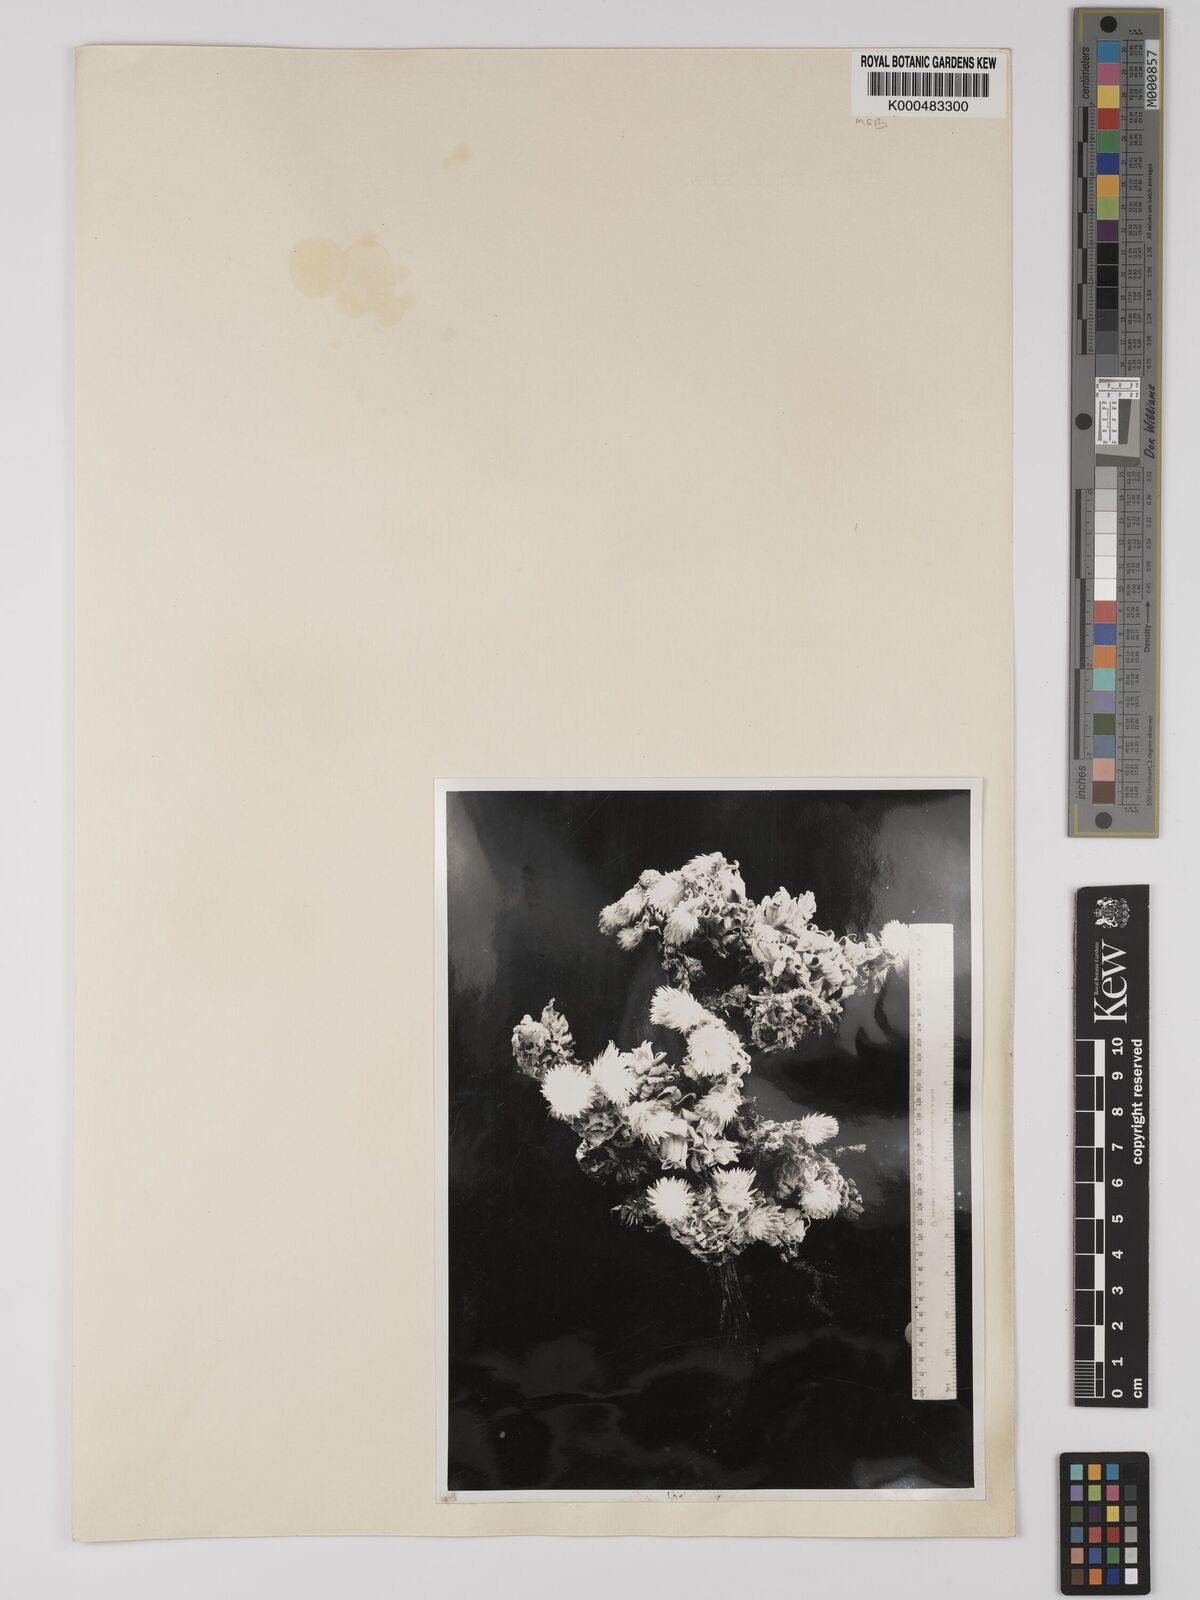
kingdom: Plantae
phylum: Tracheophyta
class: Magnoliopsida
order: Asterales
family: Asteraceae
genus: Helichrysum
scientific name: Helichrysum summo-montanum
